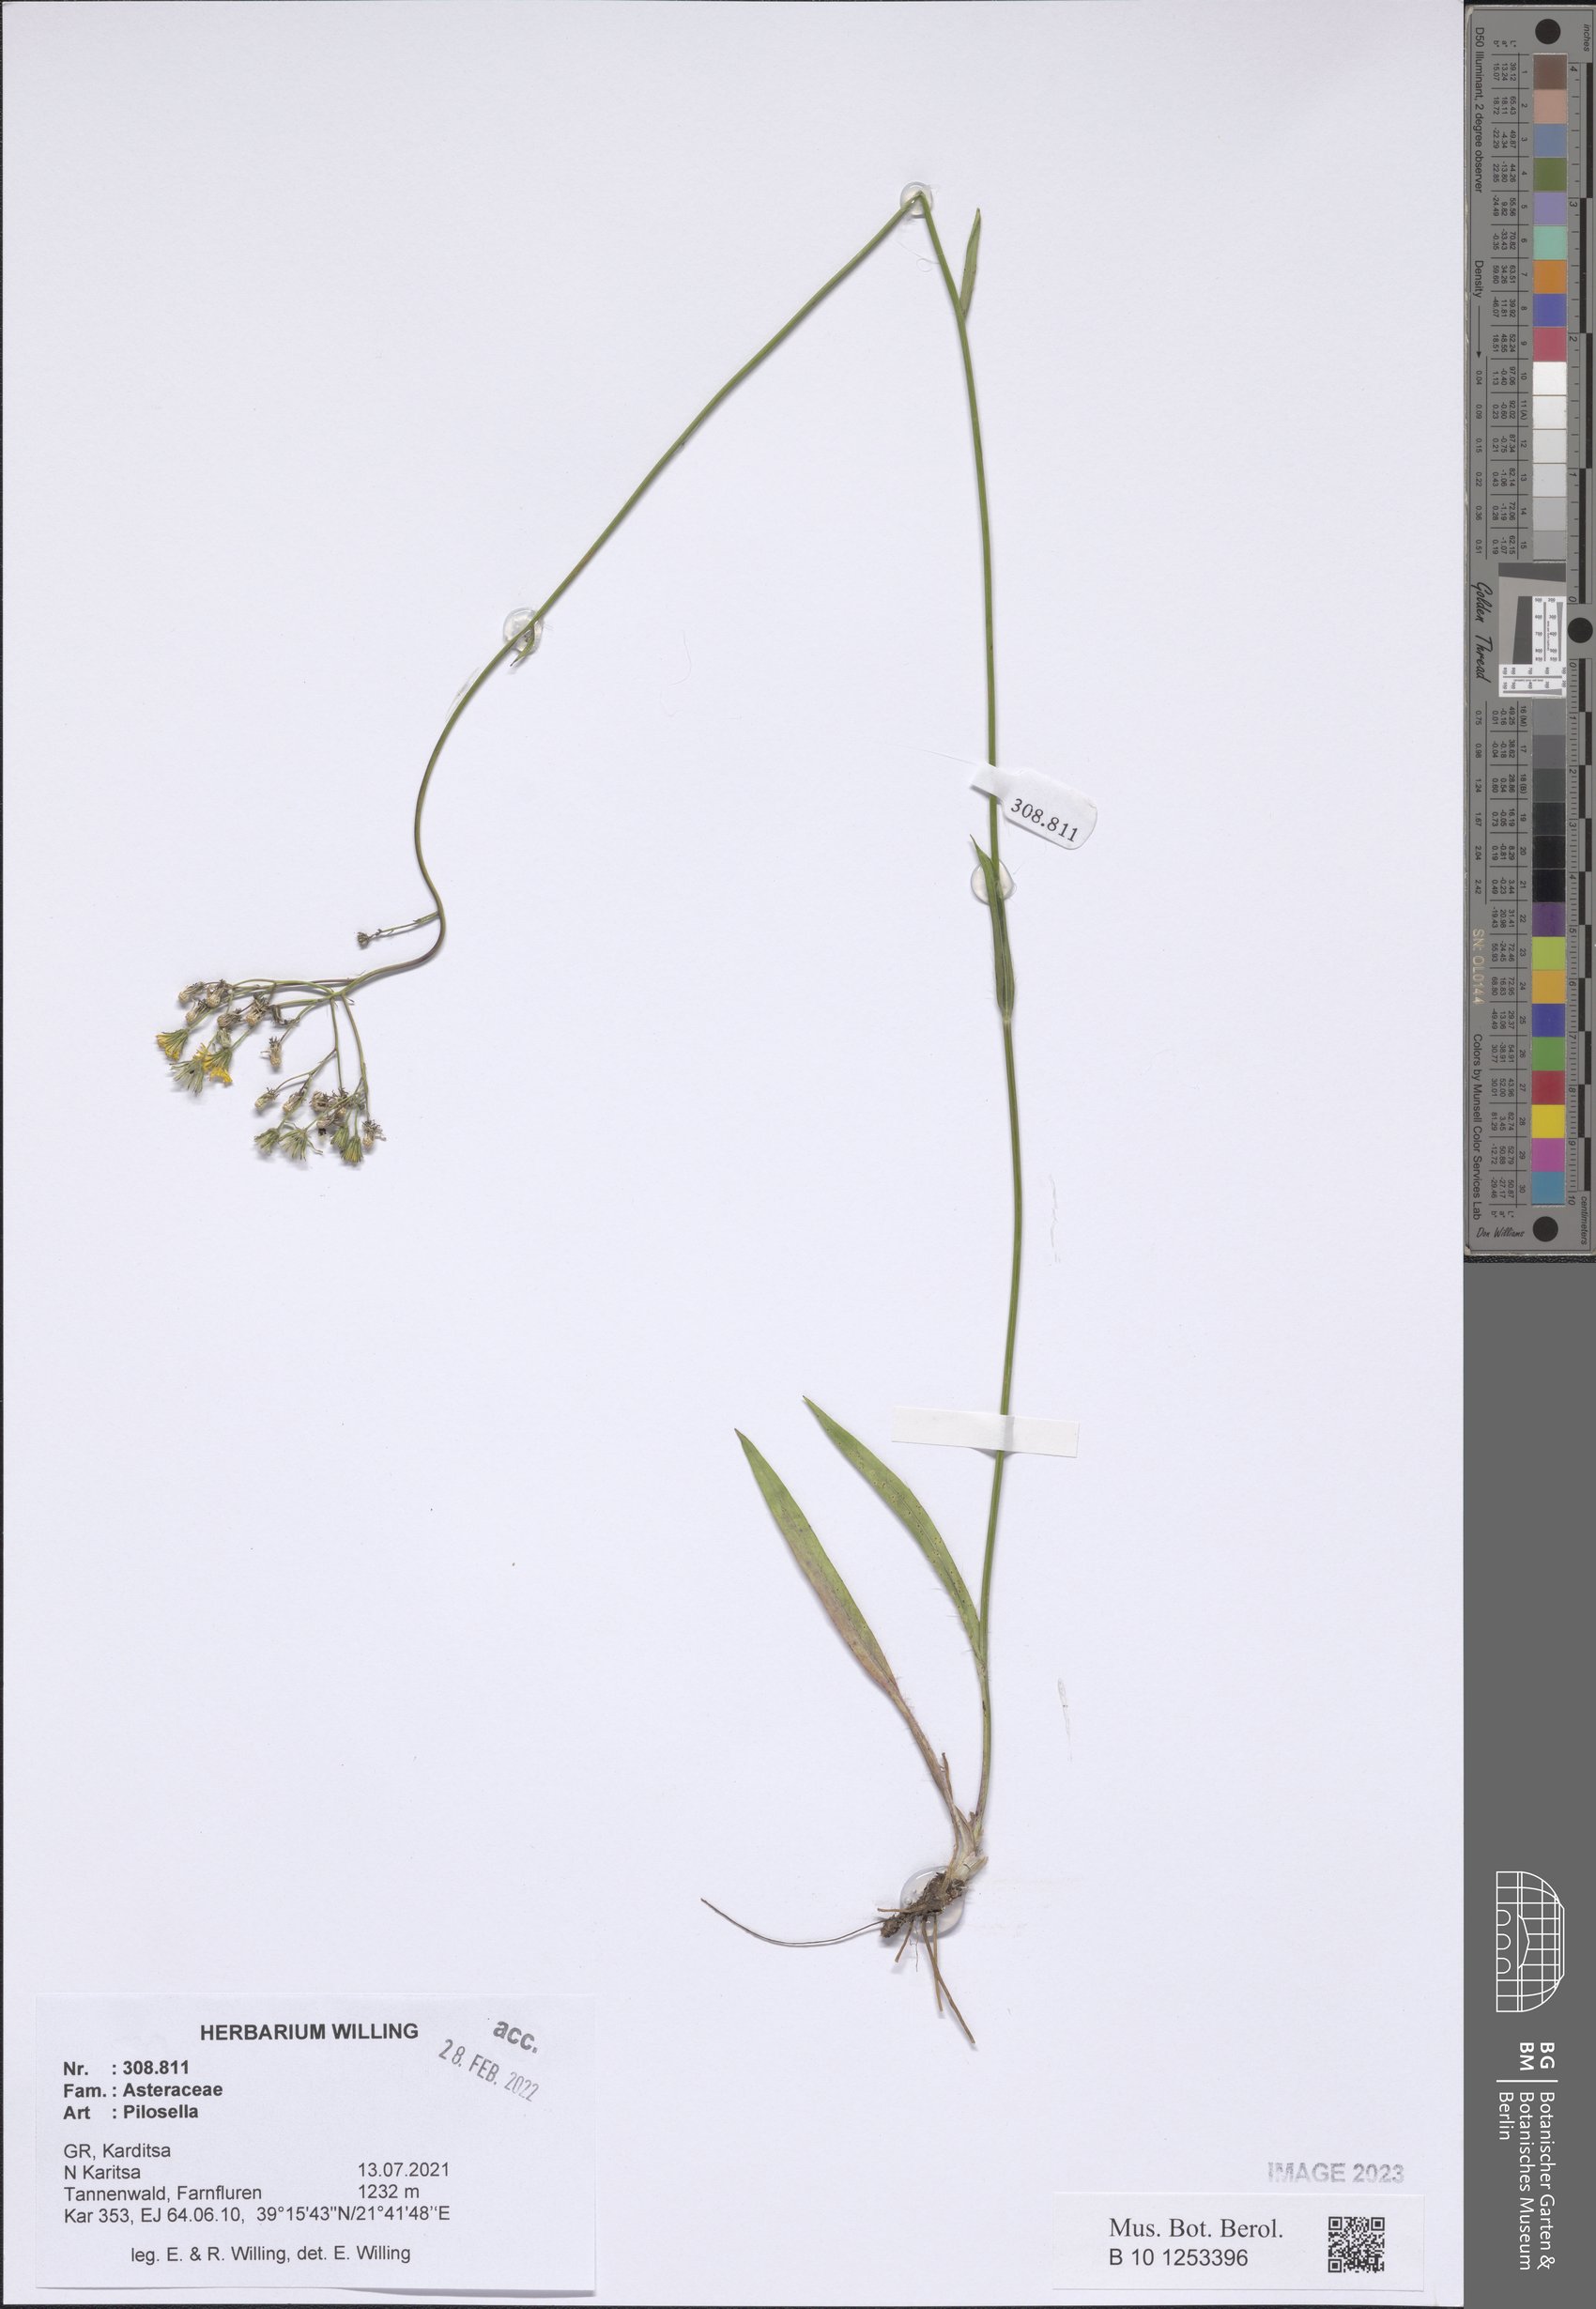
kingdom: Plantae
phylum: Tracheophyta
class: Magnoliopsida
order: Asterales
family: Asteraceae
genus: Pilosella
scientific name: Pilosella
